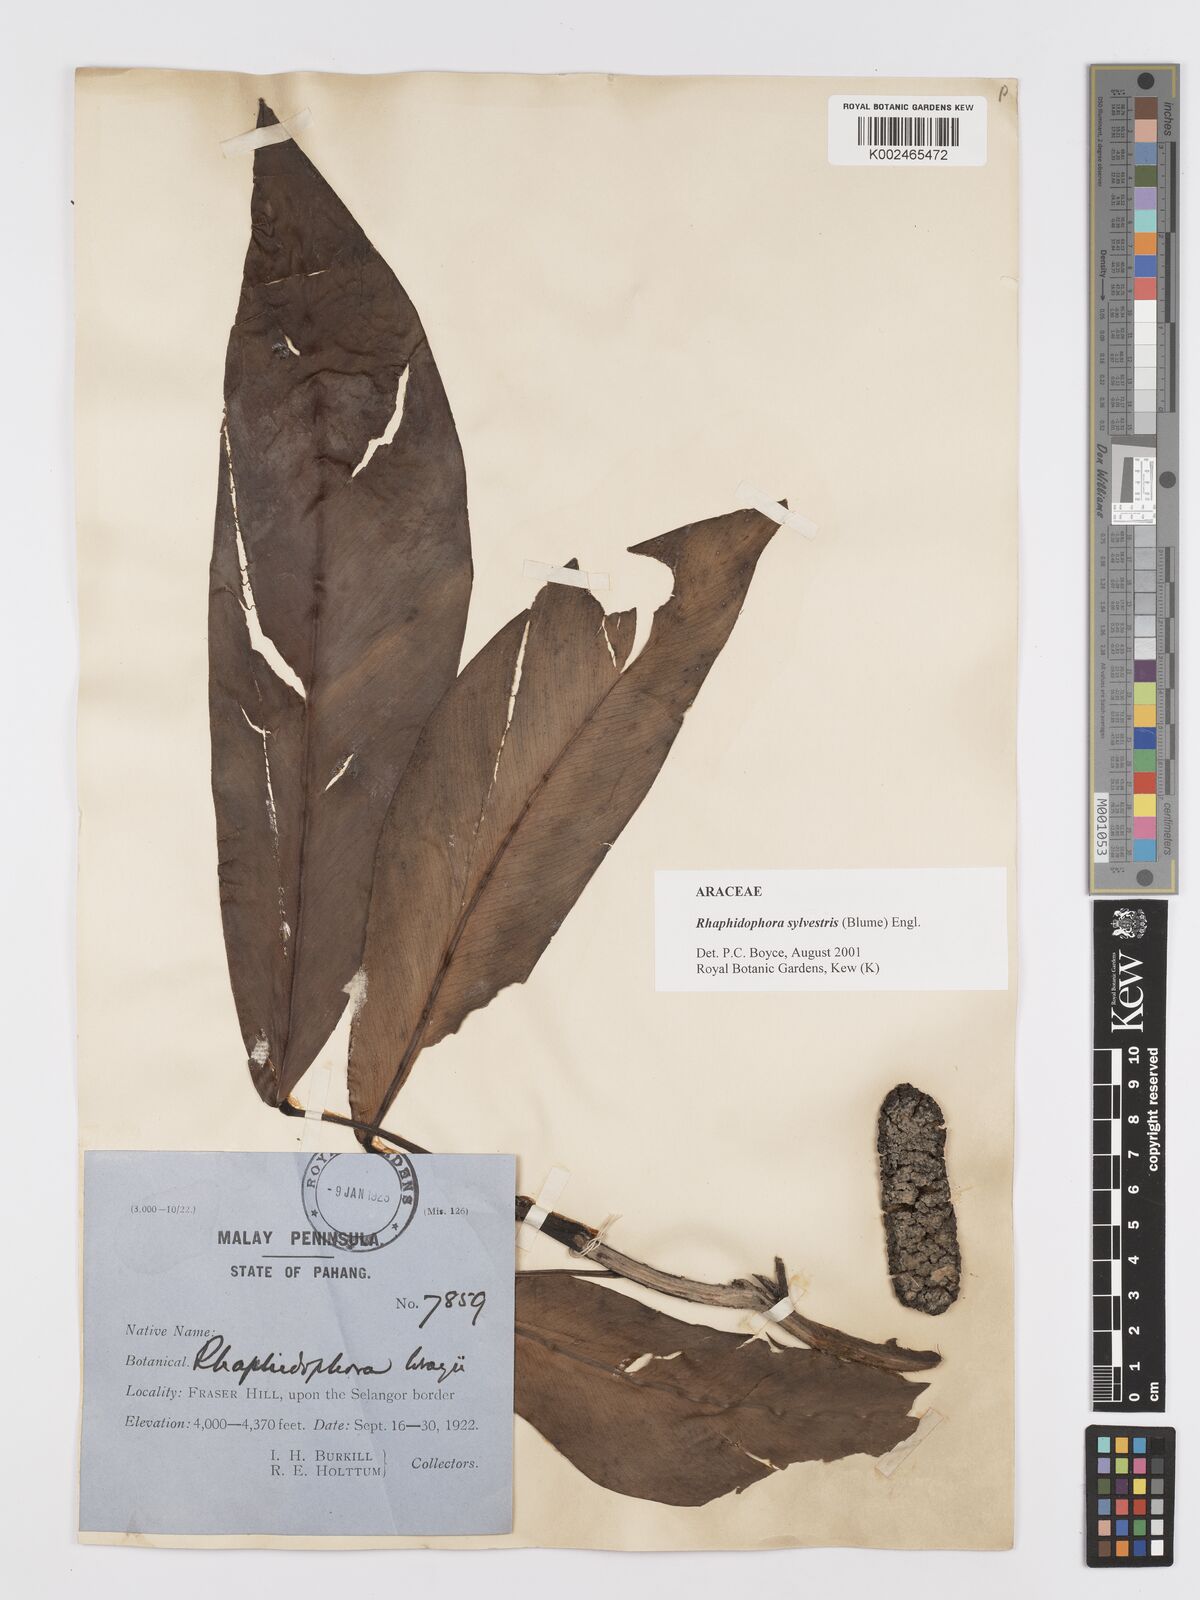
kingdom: Plantae
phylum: Tracheophyta
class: Liliopsida
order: Alismatales
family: Araceae
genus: Rhaphidophora
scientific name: Rhaphidophora sylvestris
